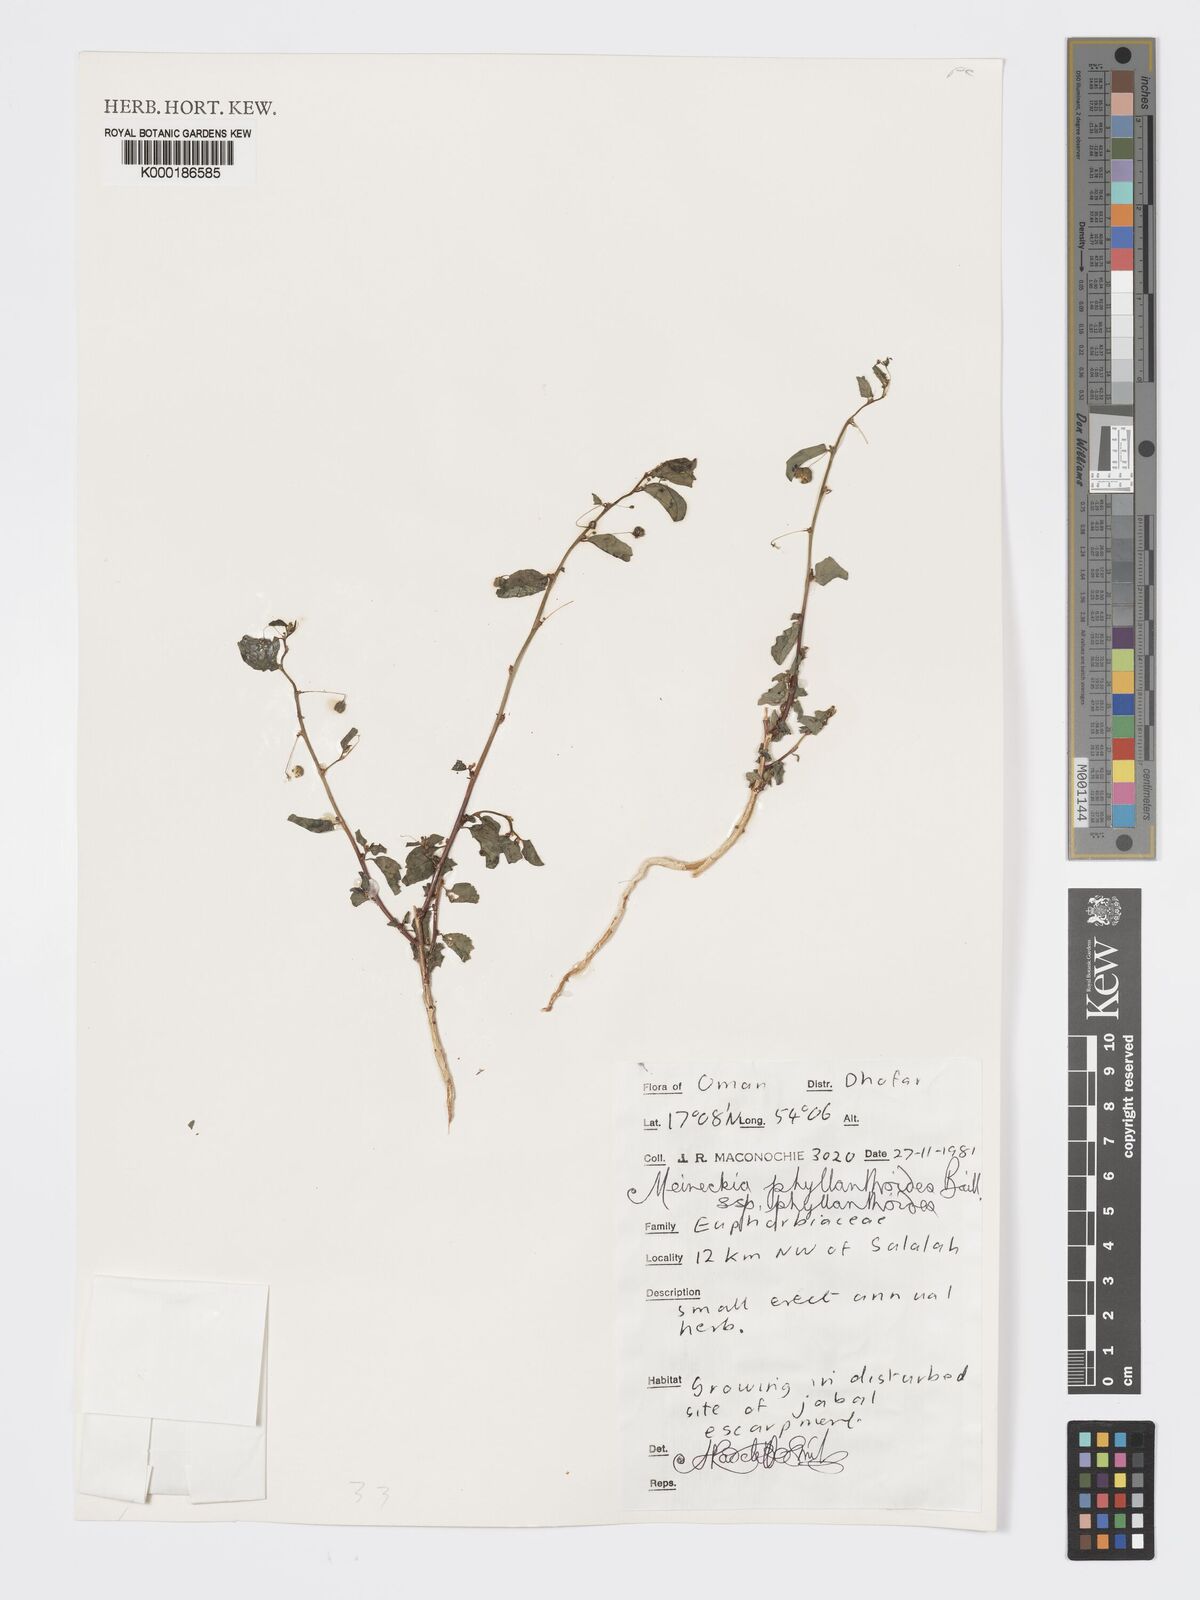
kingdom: Plantae
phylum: Tracheophyta
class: Magnoliopsida
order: Malpighiales
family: Phyllanthaceae
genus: Meineckia
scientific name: Meineckia phyllanthoides
